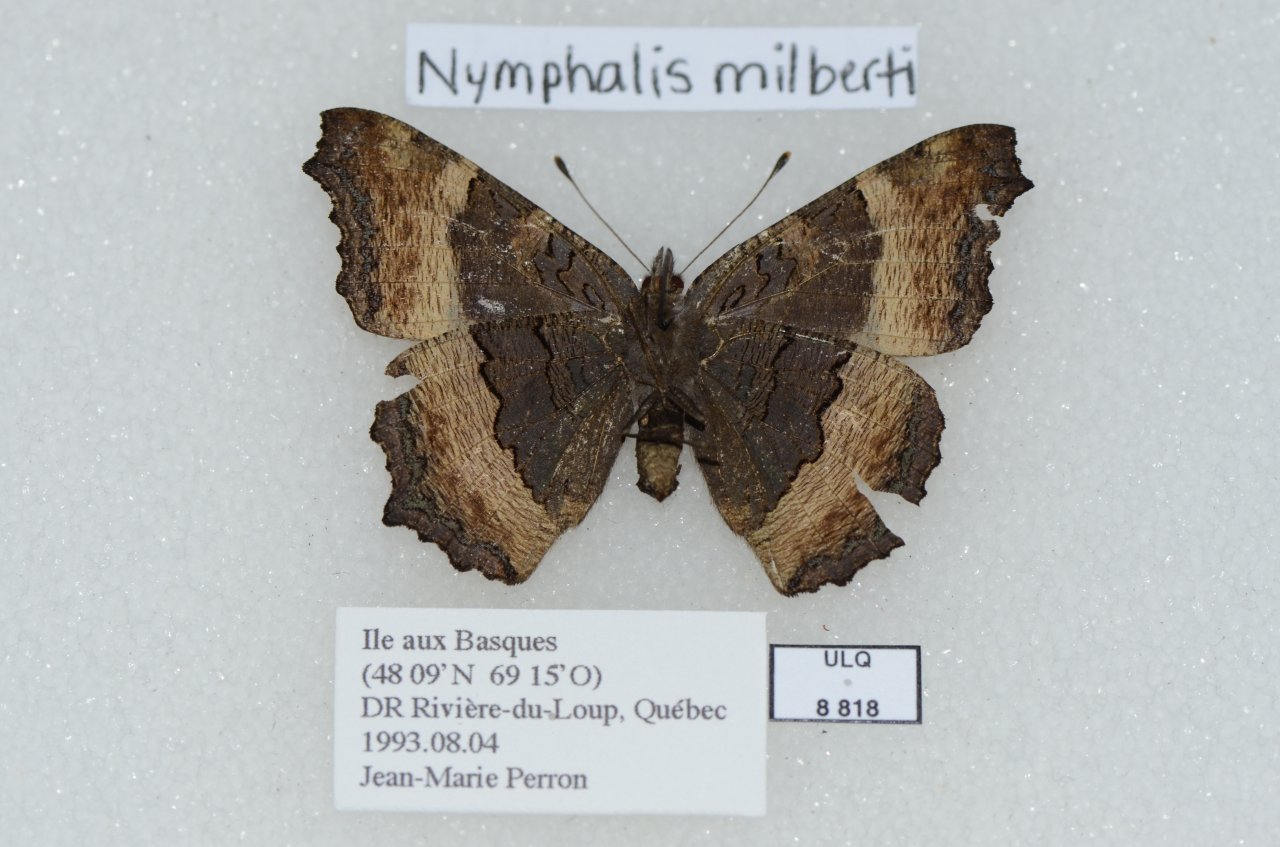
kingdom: Animalia
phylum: Arthropoda
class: Insecta
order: Lepidoptera
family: Nymphalidae
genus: Aglais
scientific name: Aglais milberti
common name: Milbert's Tortoiseshell
